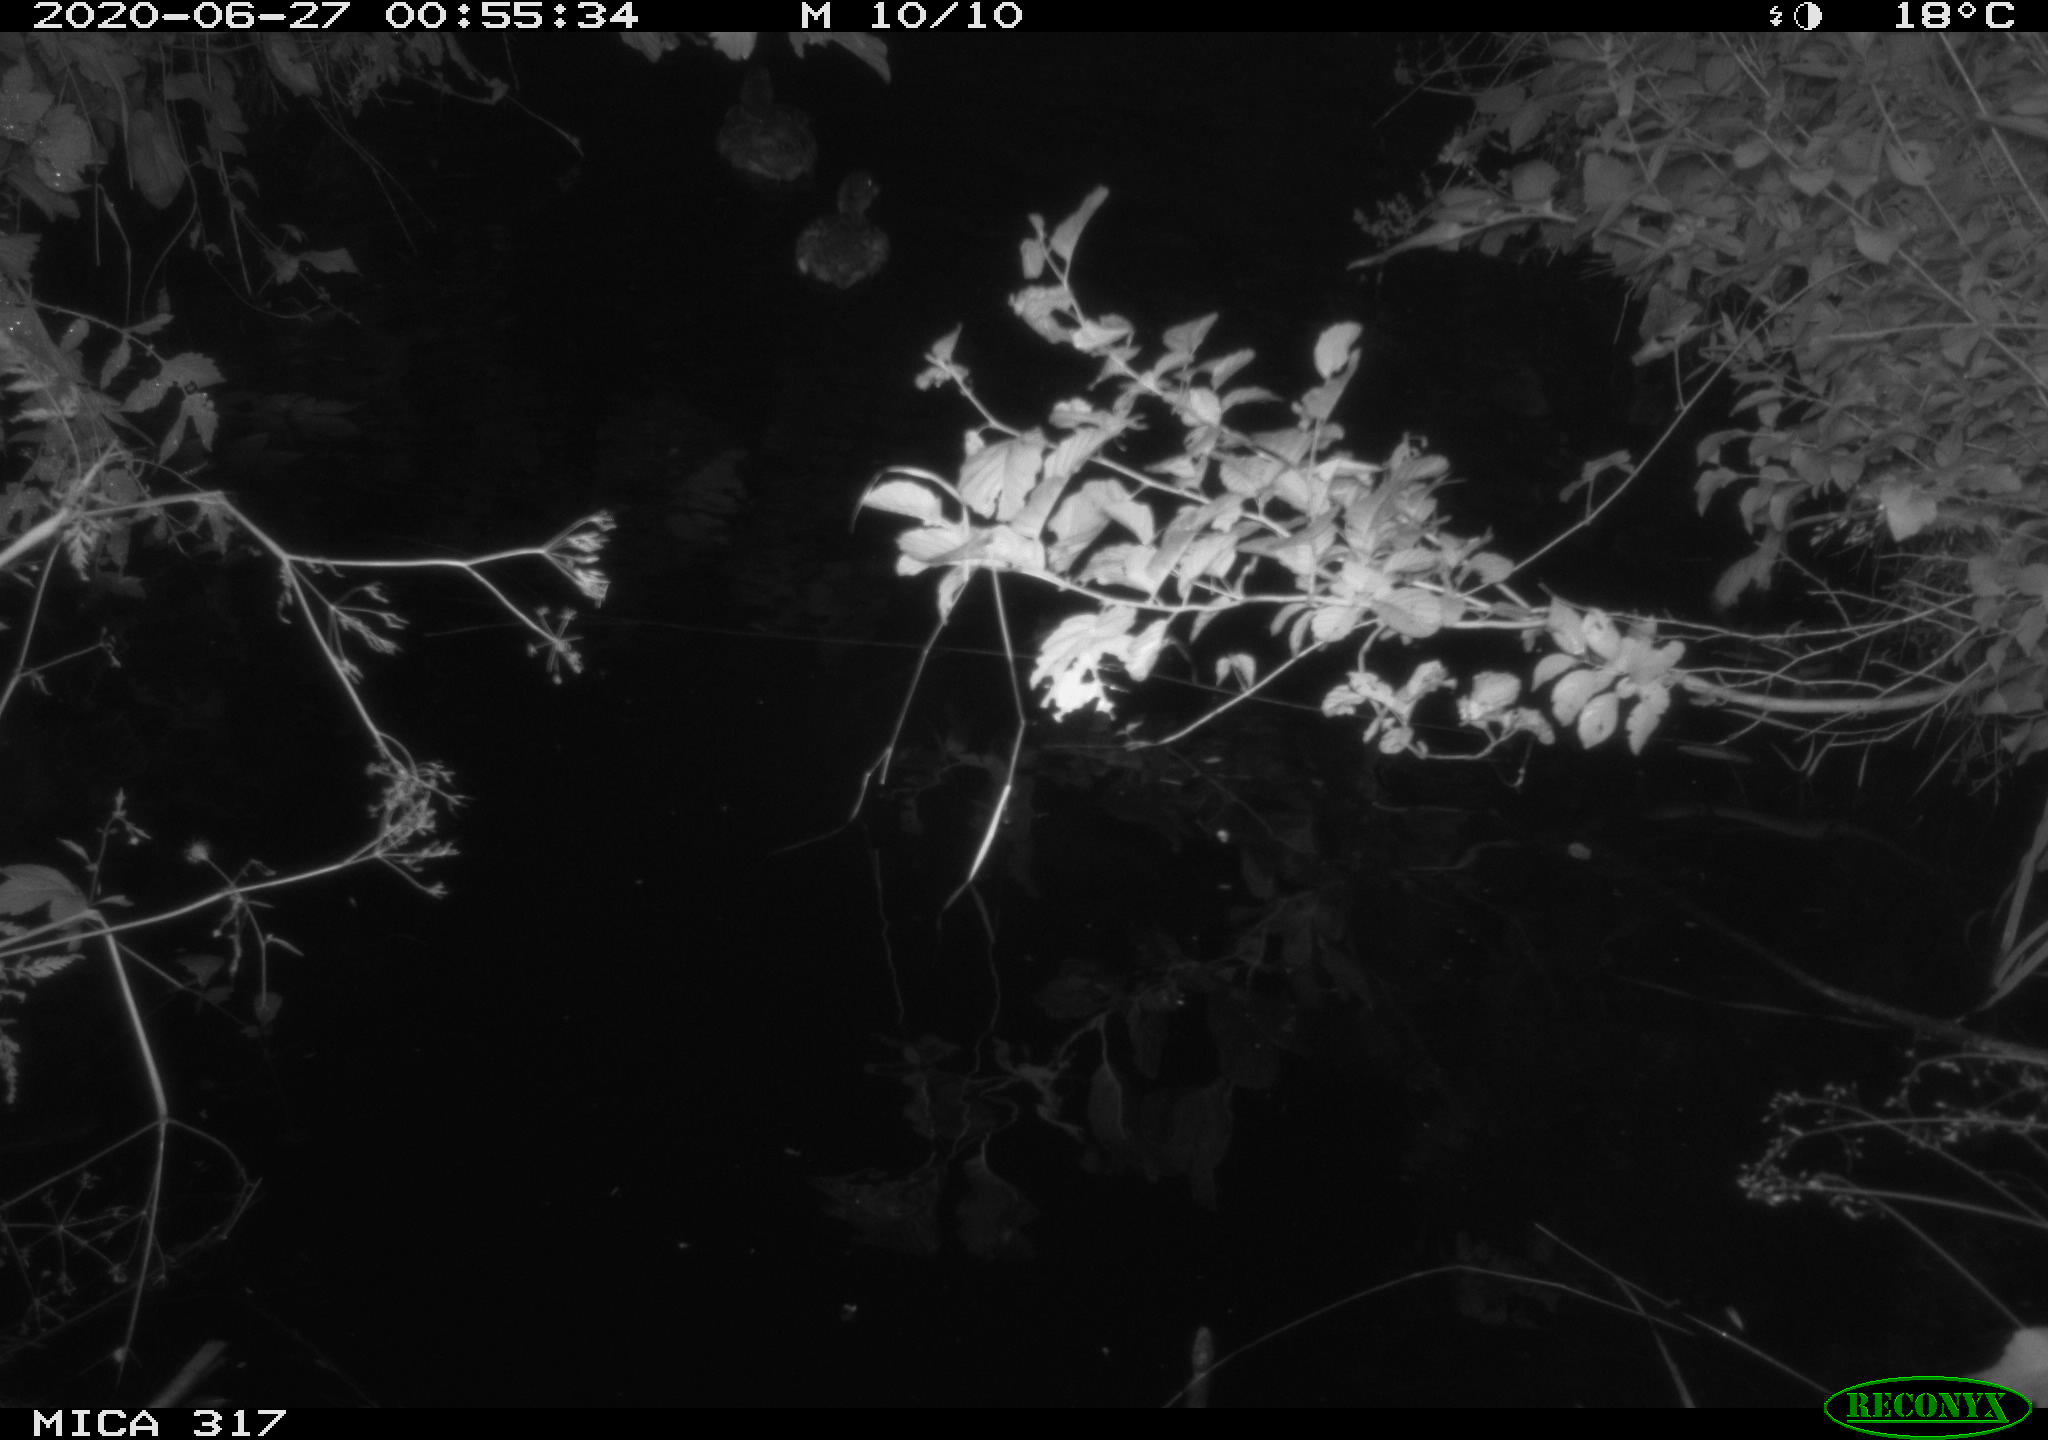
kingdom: Animalia
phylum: Chordata
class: Aves
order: Anseriformes
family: Anatidae
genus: Anas
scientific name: Anas platyrhynchos
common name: Mallard
